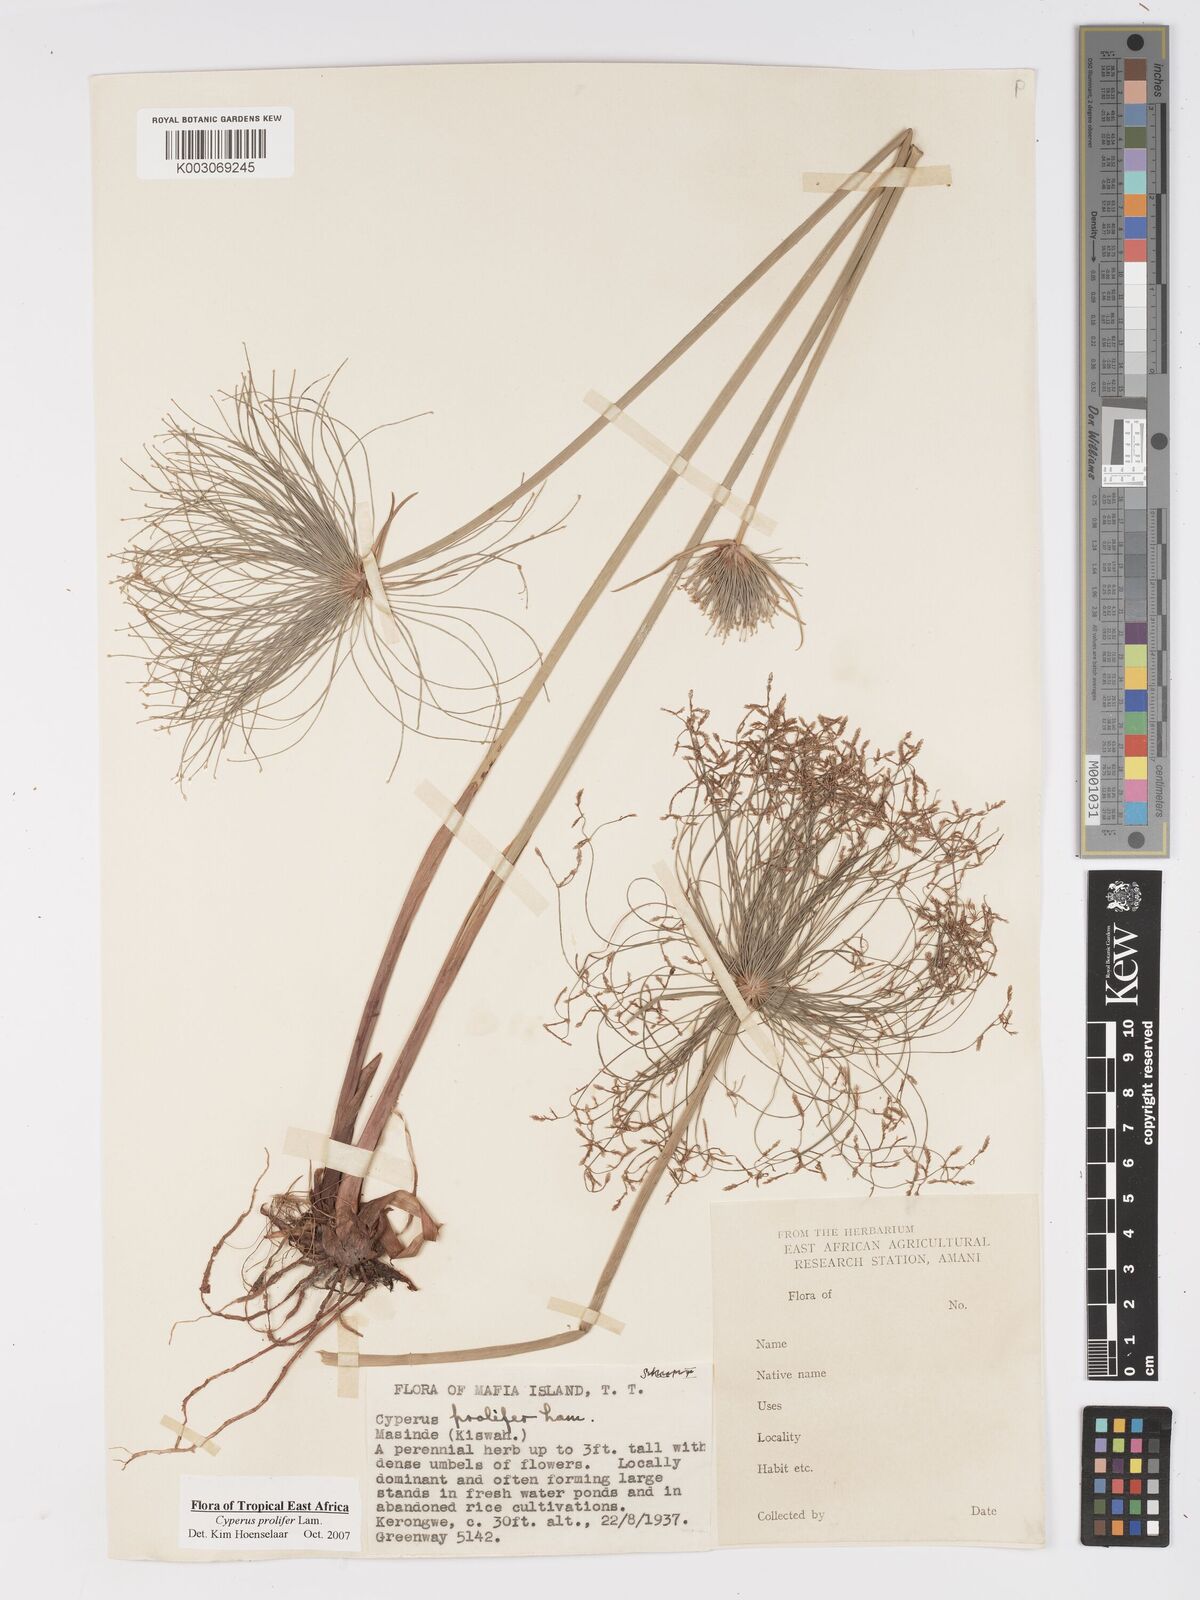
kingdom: Plantae
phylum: Tracheophyta
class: Liliopsida
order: Poales
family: Cyperaceae
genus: Cyperus
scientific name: Cyperus prolifer
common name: Miniature flatsedge
